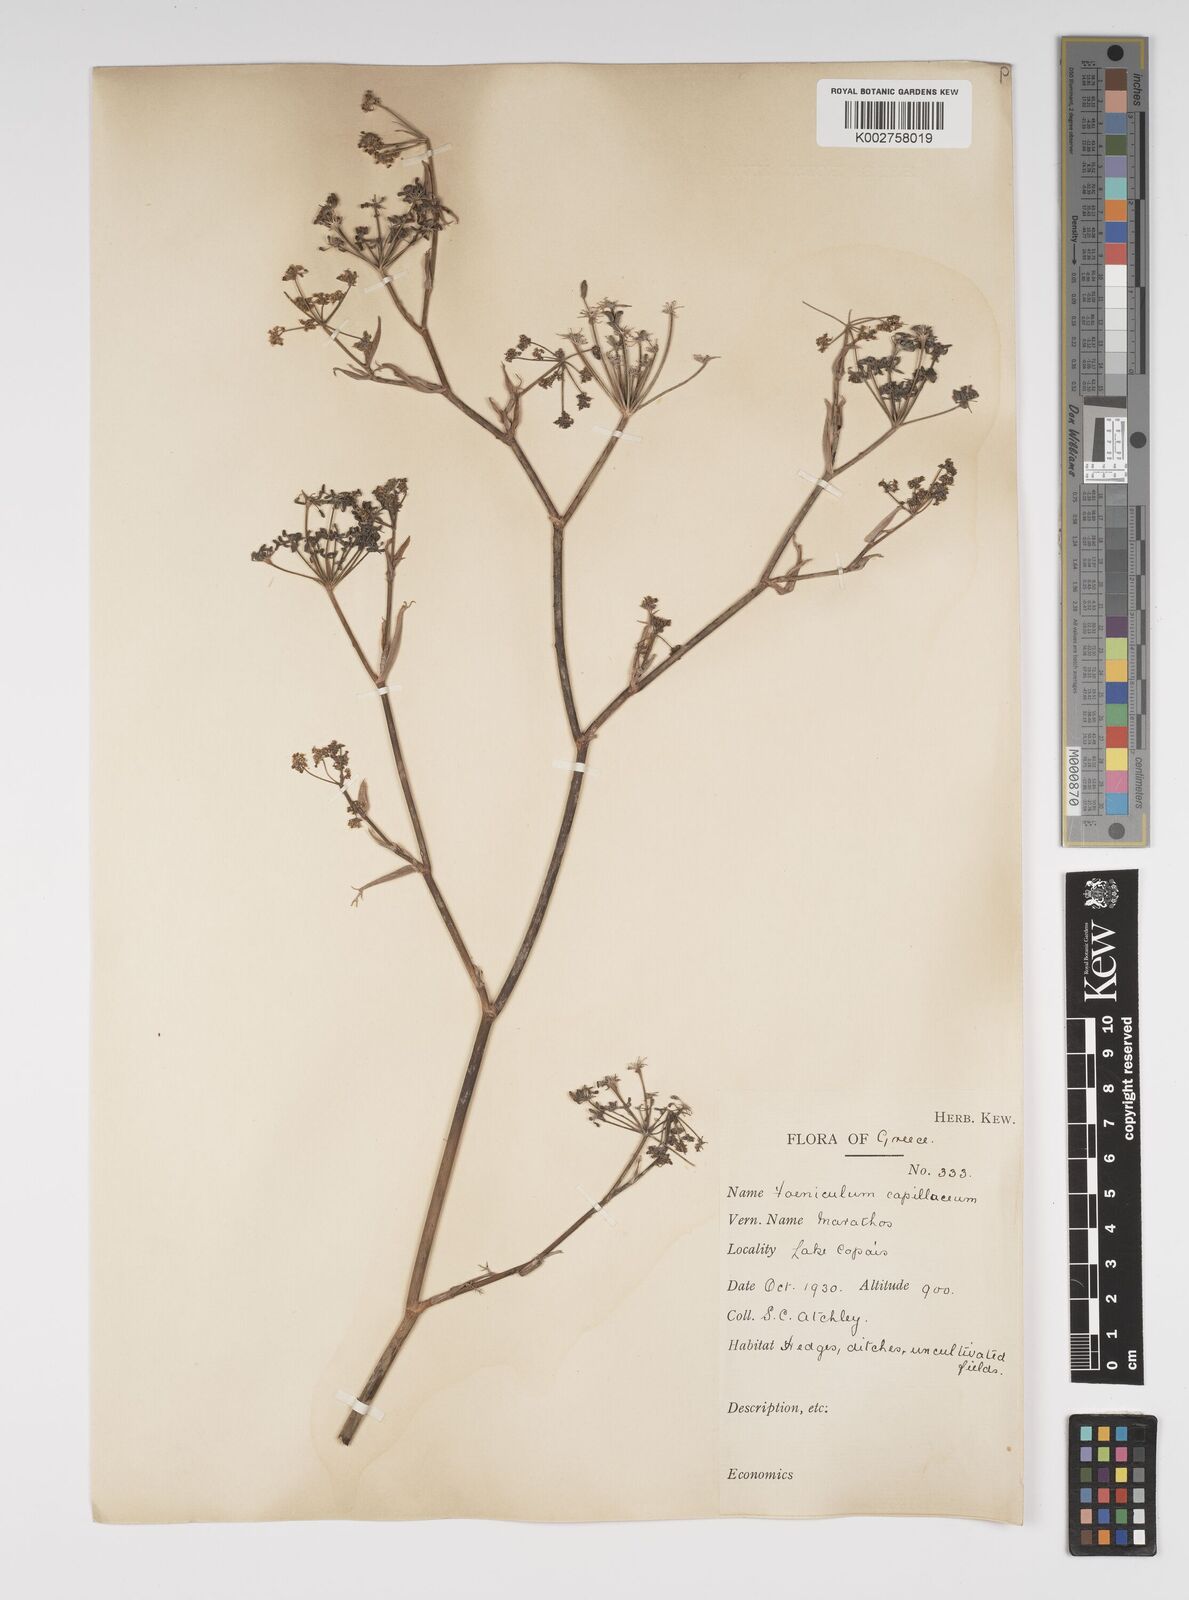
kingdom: Plantae
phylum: Tracheophyta
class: Magnoliopsida
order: Apiales
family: Apiaceae
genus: Foeniculum
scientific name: Foeniculum vulgare
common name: Fennel
